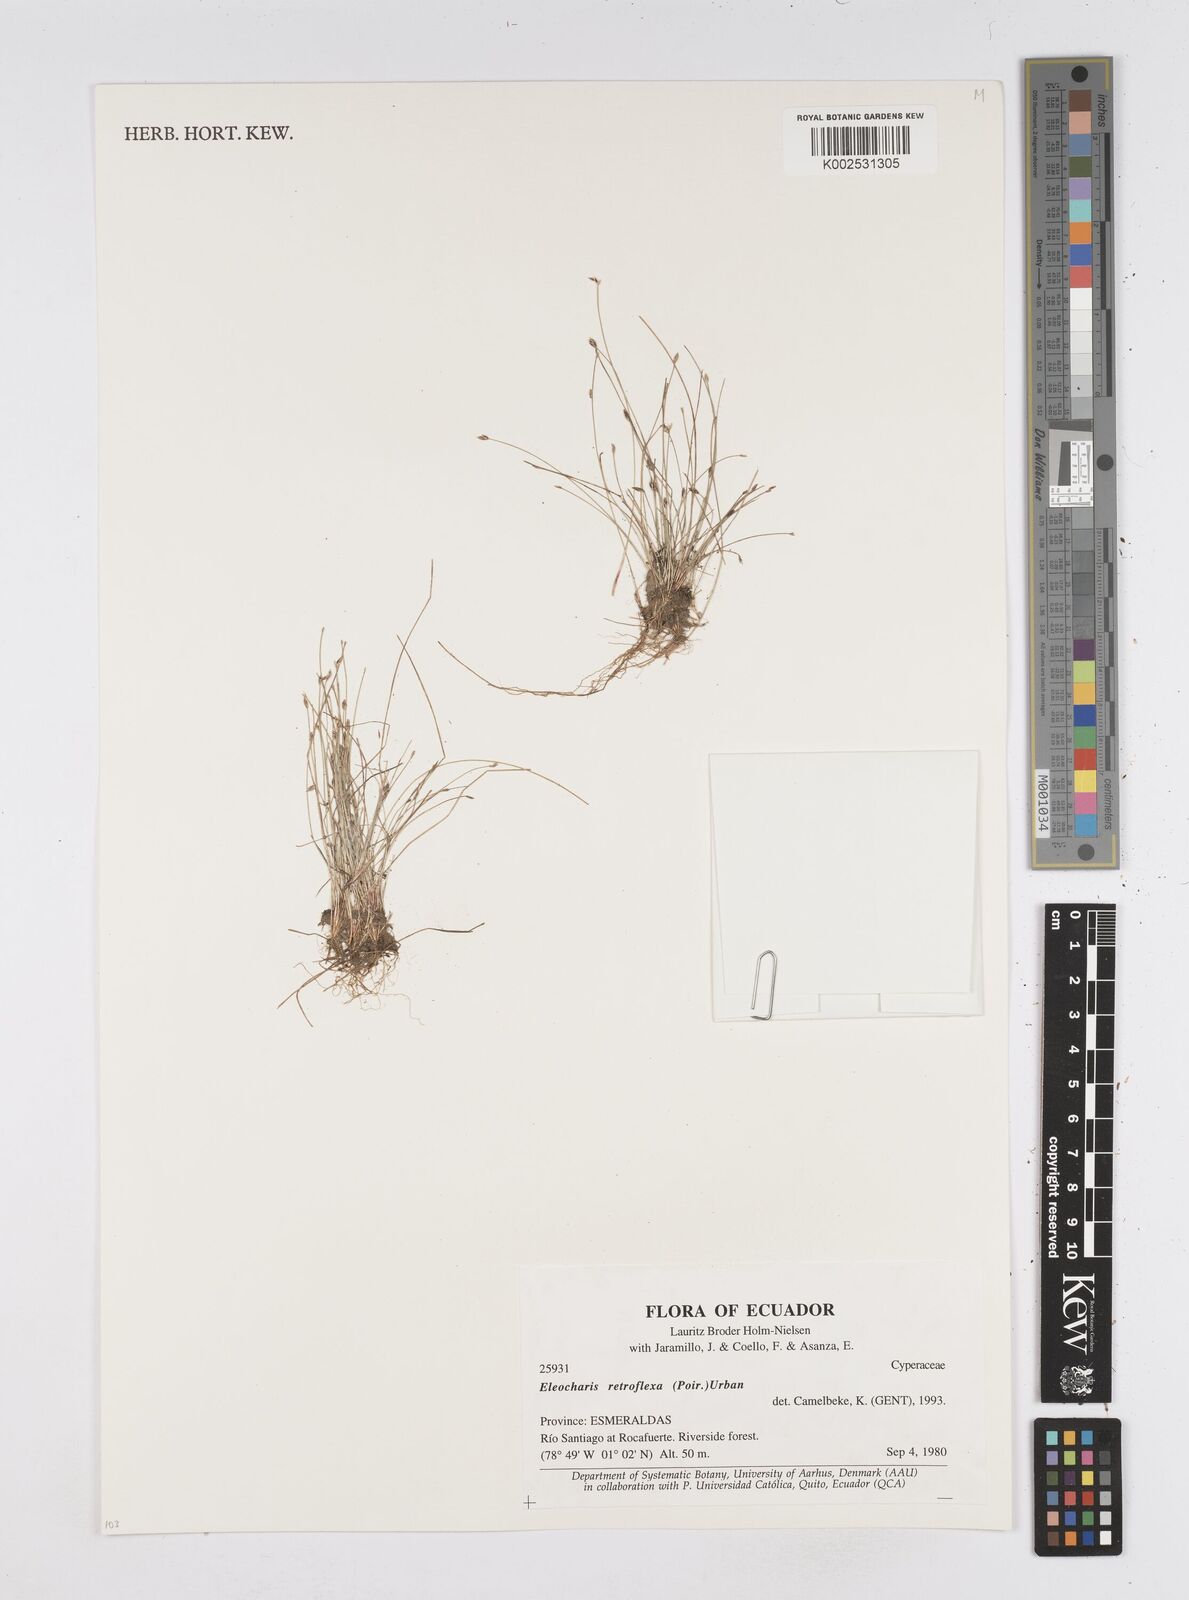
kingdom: Plantae
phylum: Tracheophyta
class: Liliopsida
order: Poales
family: Cyperaceae
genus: Eleocharis
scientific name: Eleocharis retroflexa
